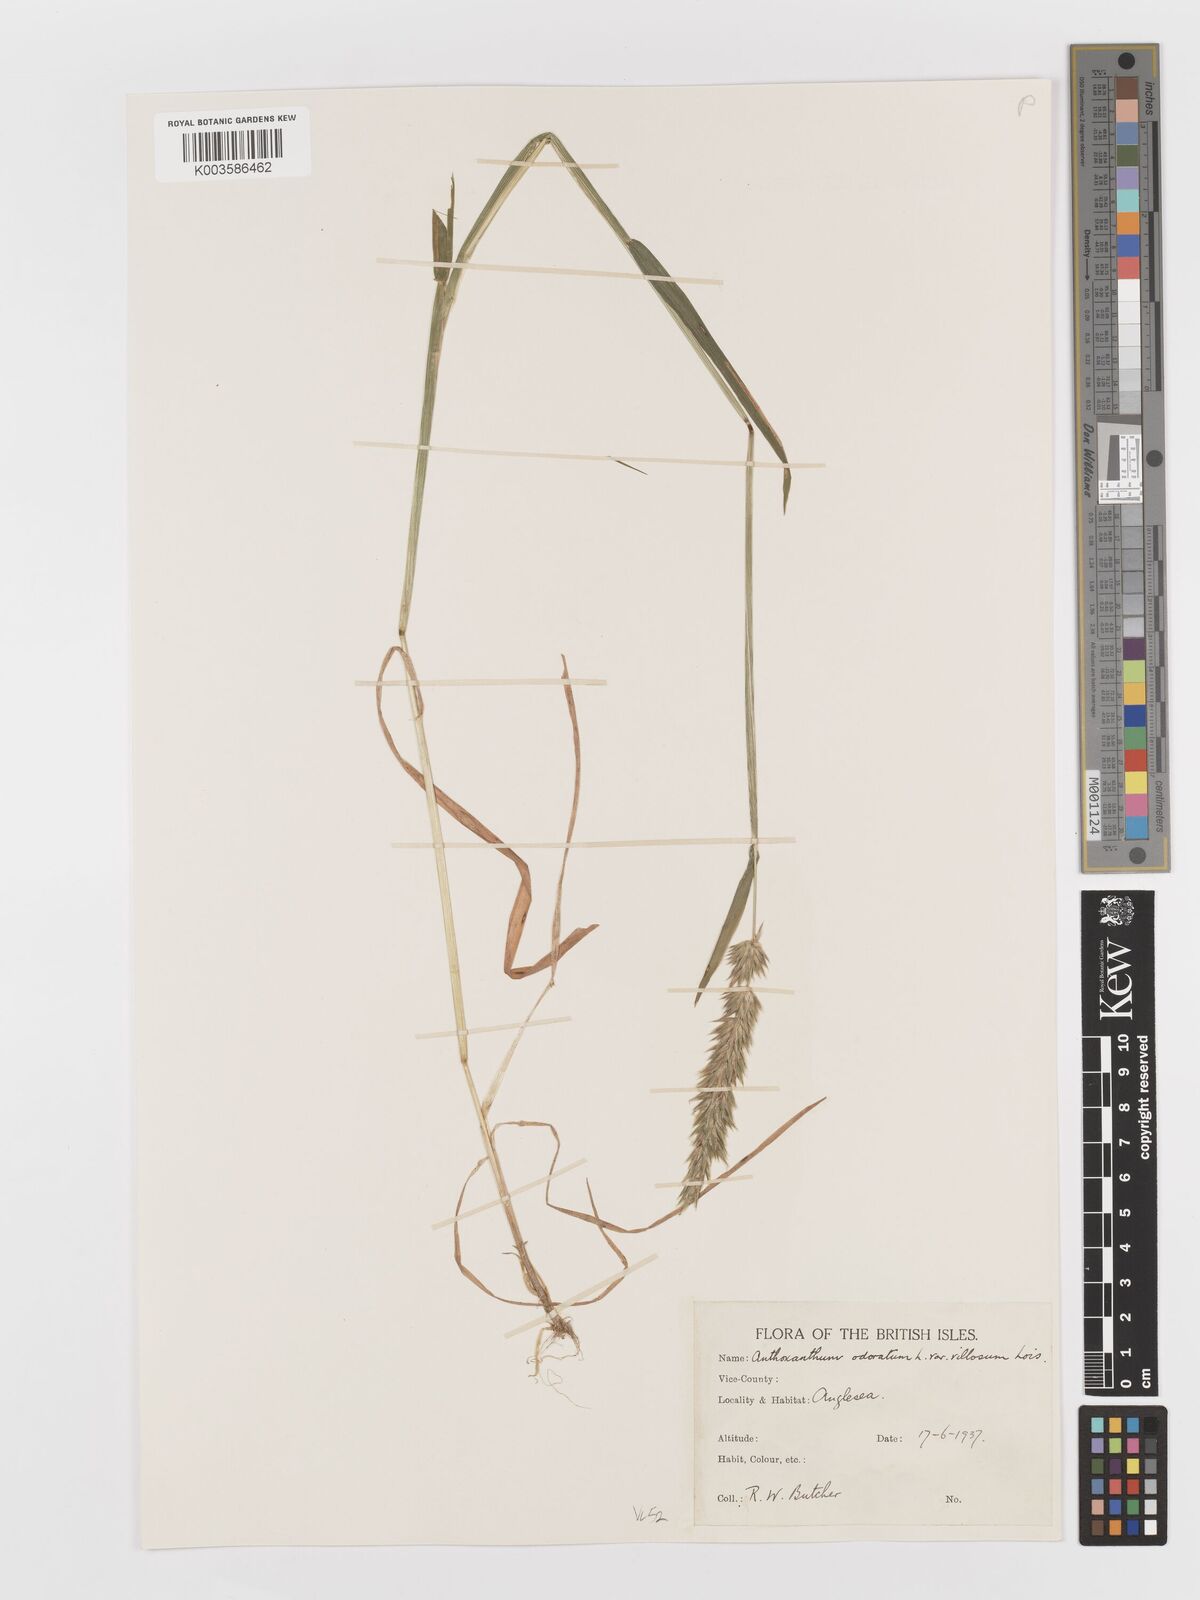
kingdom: Plantae
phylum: Tracheophyta
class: Liliopsida
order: Poales
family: Poaceae
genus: Anthoxanthum
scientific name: Anthoxanthum odoratum
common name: Sweet vernalgrass
